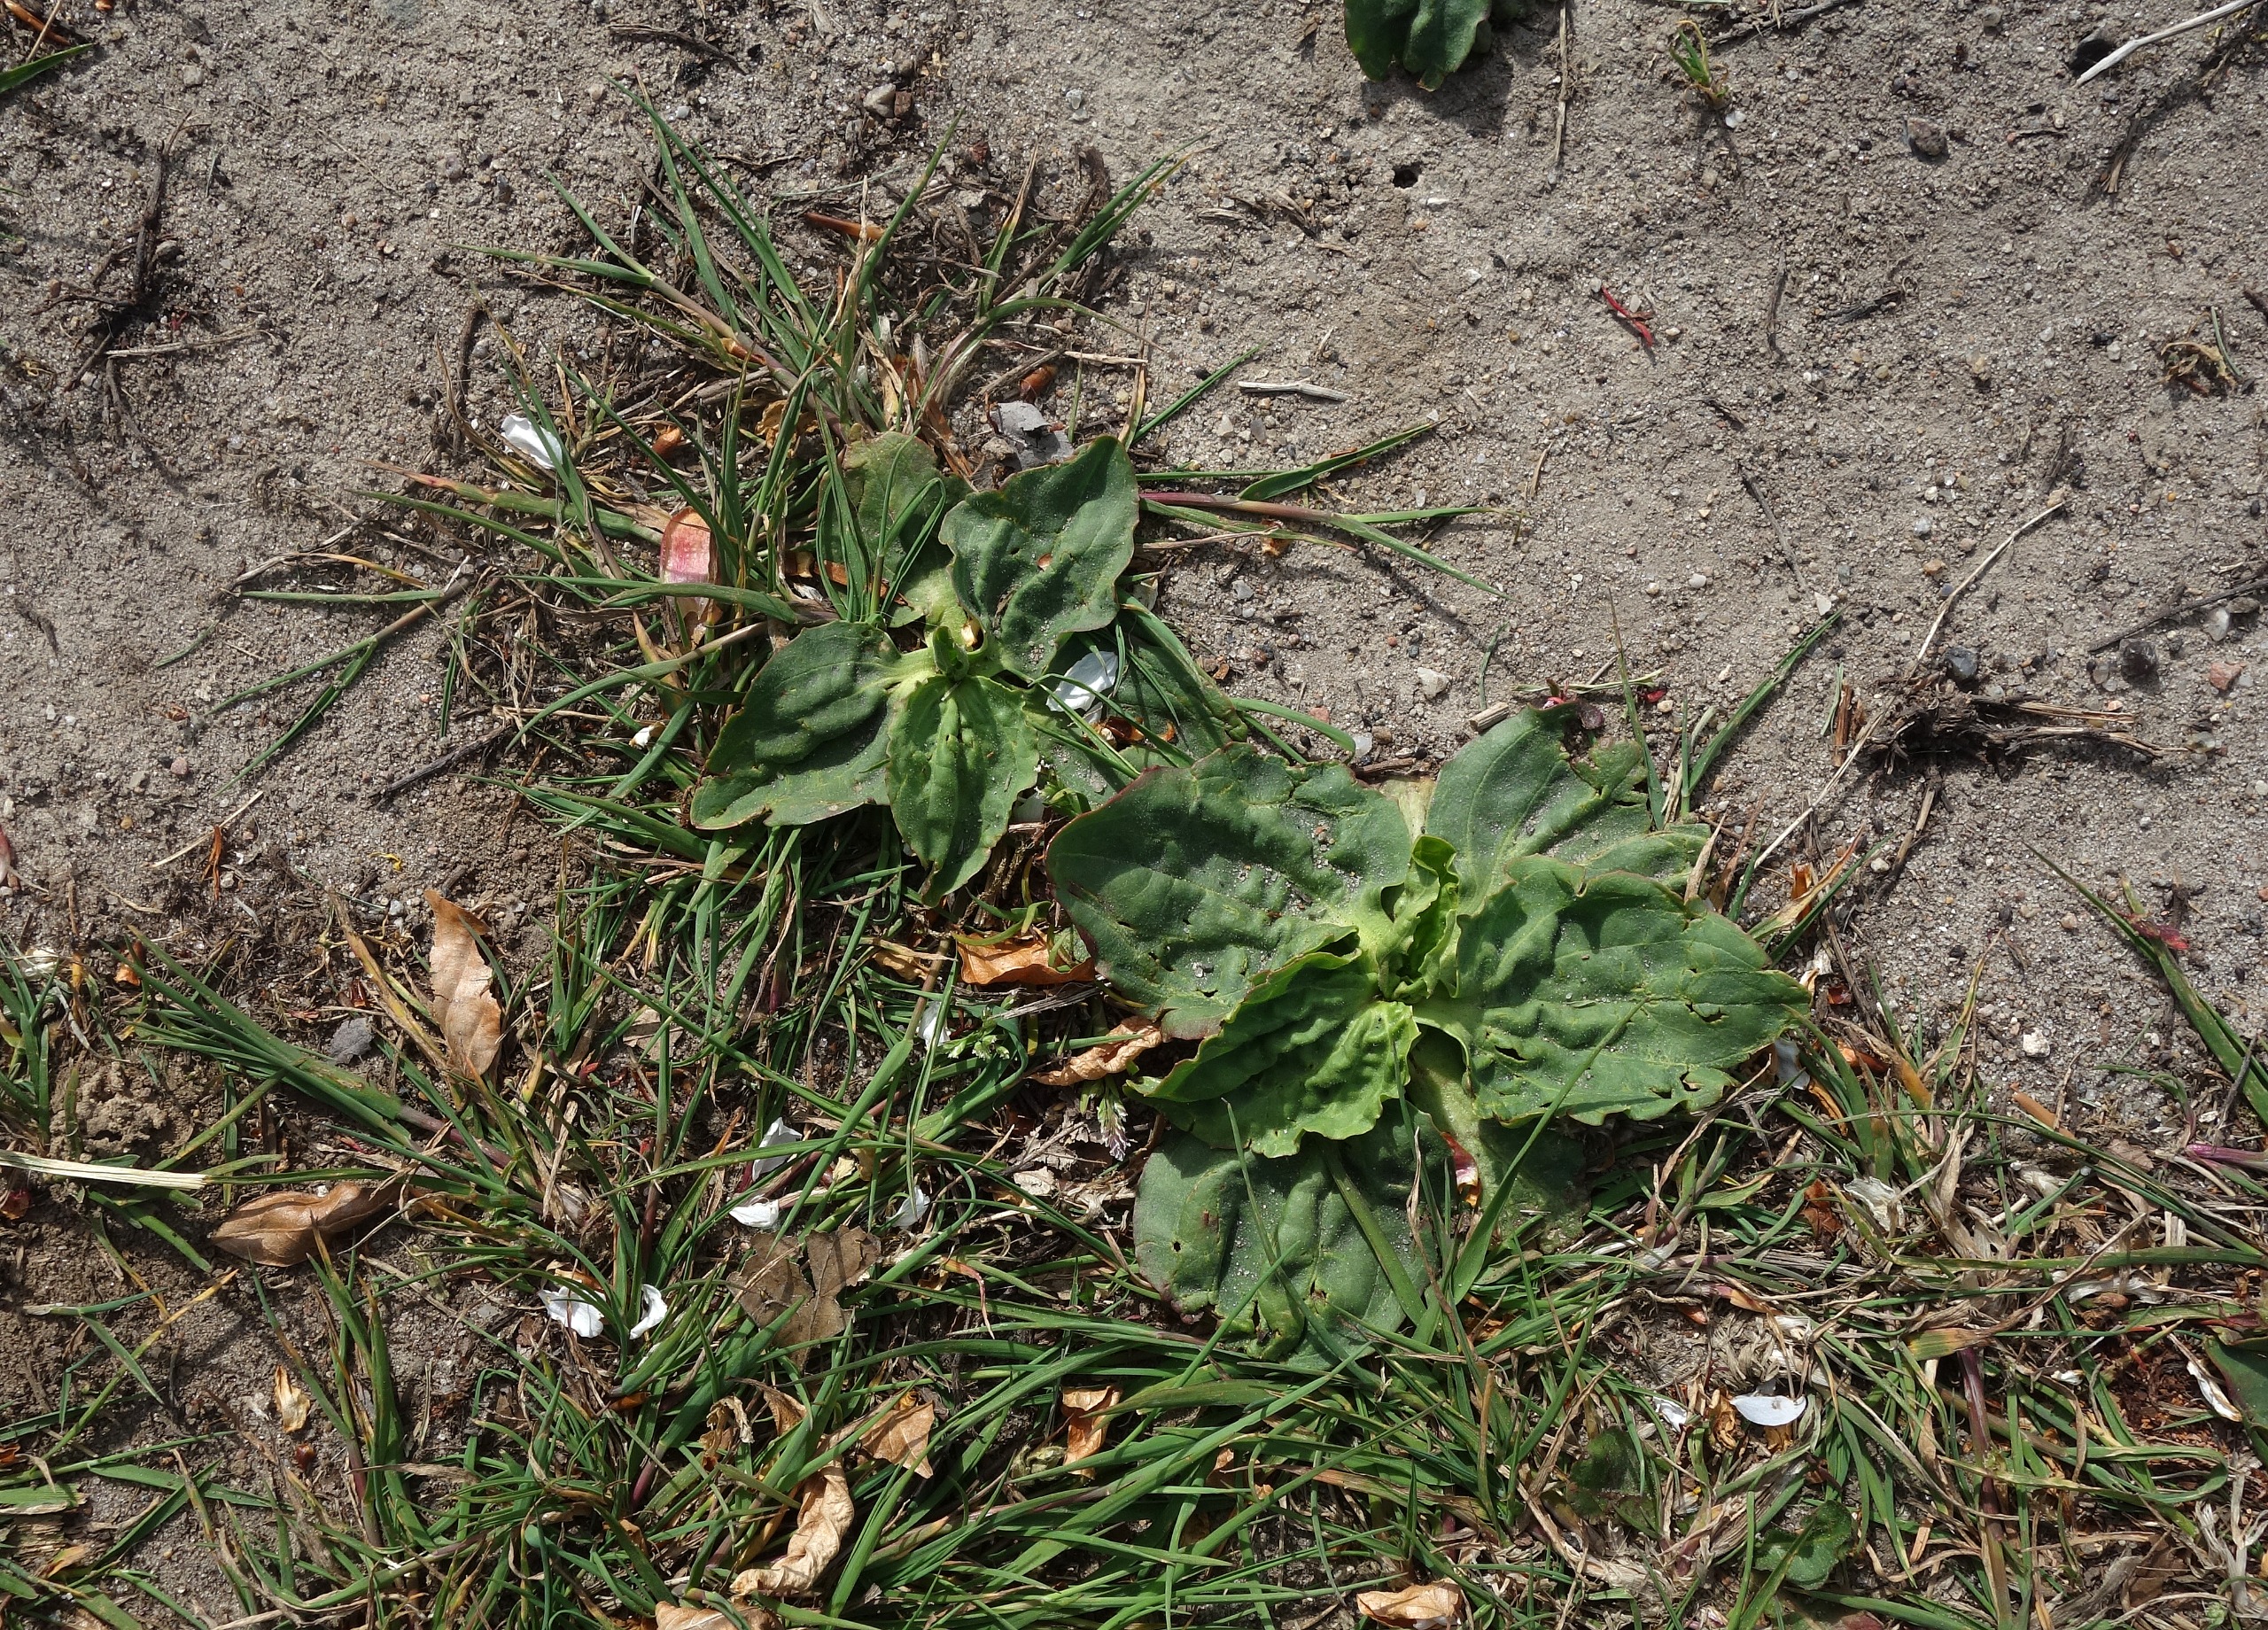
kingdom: Plantae
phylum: Tracheophyta
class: Magnoliopsida
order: Lamiales
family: Plantaginaceae
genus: Plantago
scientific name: Plantago major
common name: Glat vejbred
